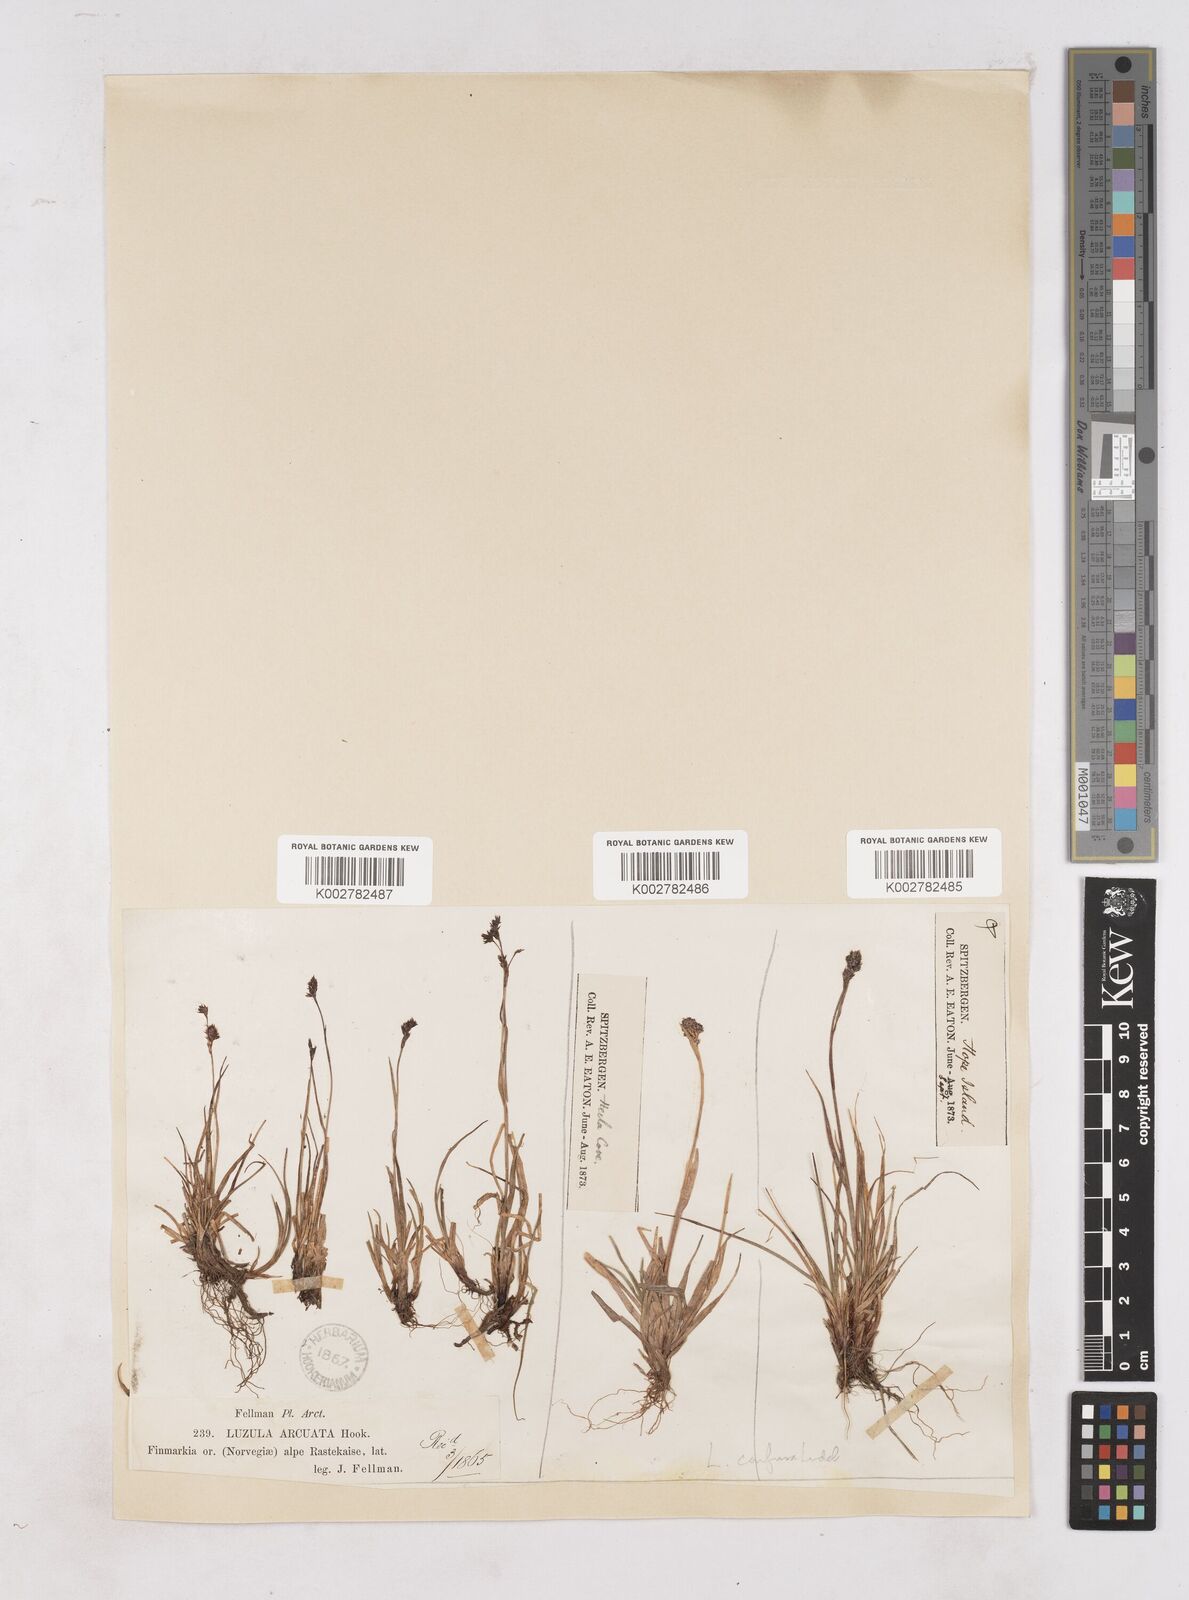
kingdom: Plantae
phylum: Tracheophyta
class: Liliopsida
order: Poales
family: Juncaceae
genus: Luzula
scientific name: Luzula arcuata
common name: Curved wood-rush
